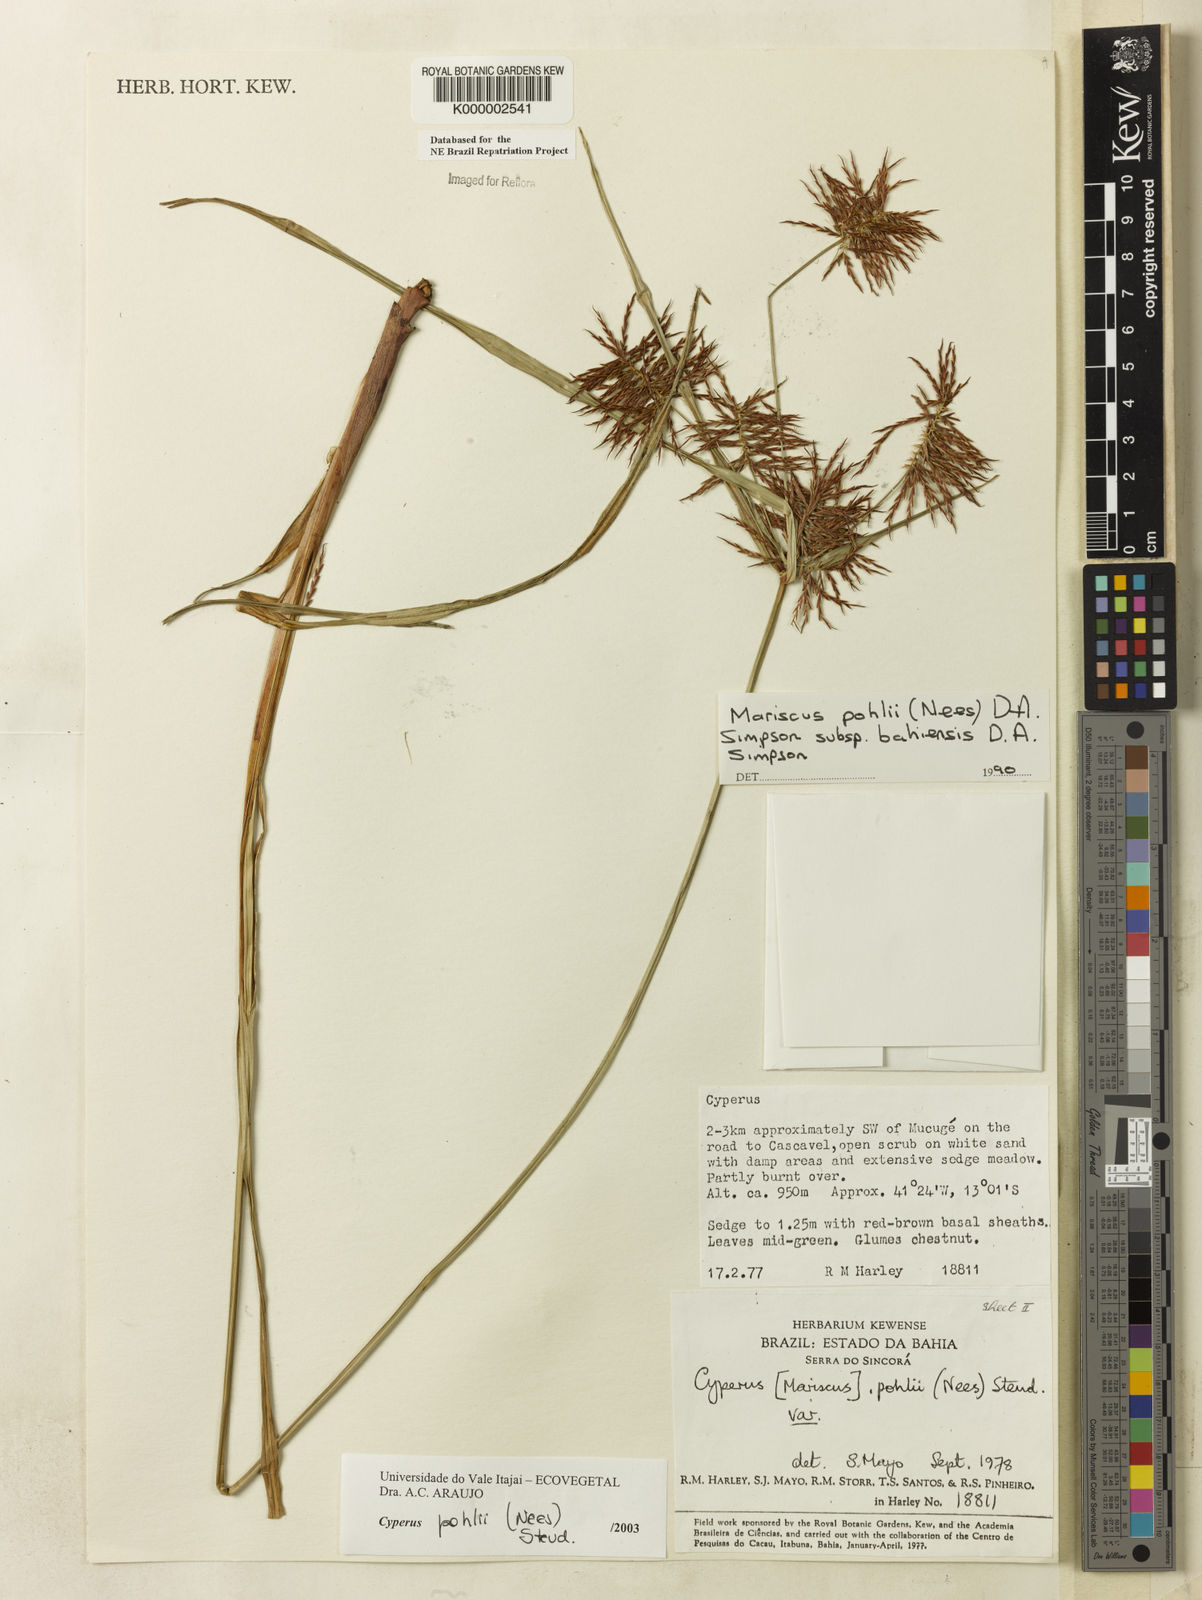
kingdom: Plantae
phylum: Tracheophyta
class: Liliopsida
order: Poales
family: Cyperaceae
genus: Cyperus
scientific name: Cyperus pohlii
